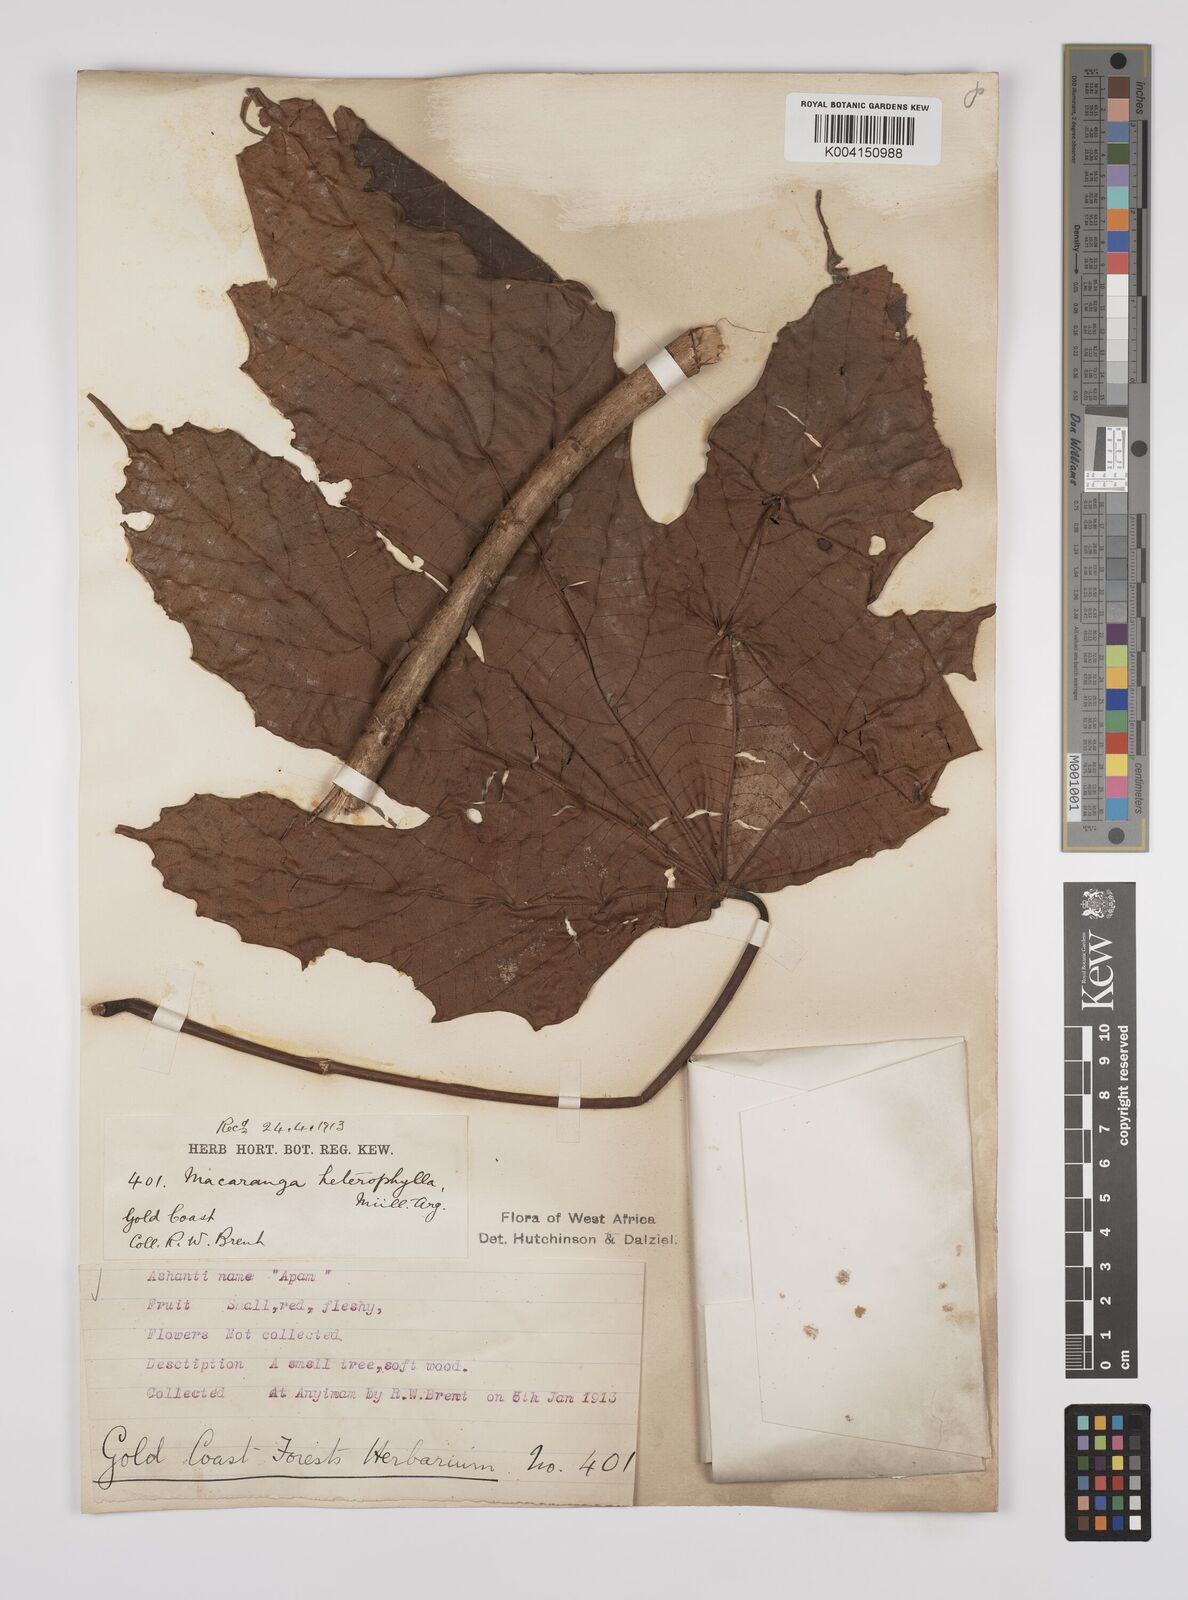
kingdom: Plantae
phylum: Tracheophyta
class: Magnoliopsida
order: Malpighiales
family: Euphorbiaceae
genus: Macaranga
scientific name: Macaranga heterophylla
